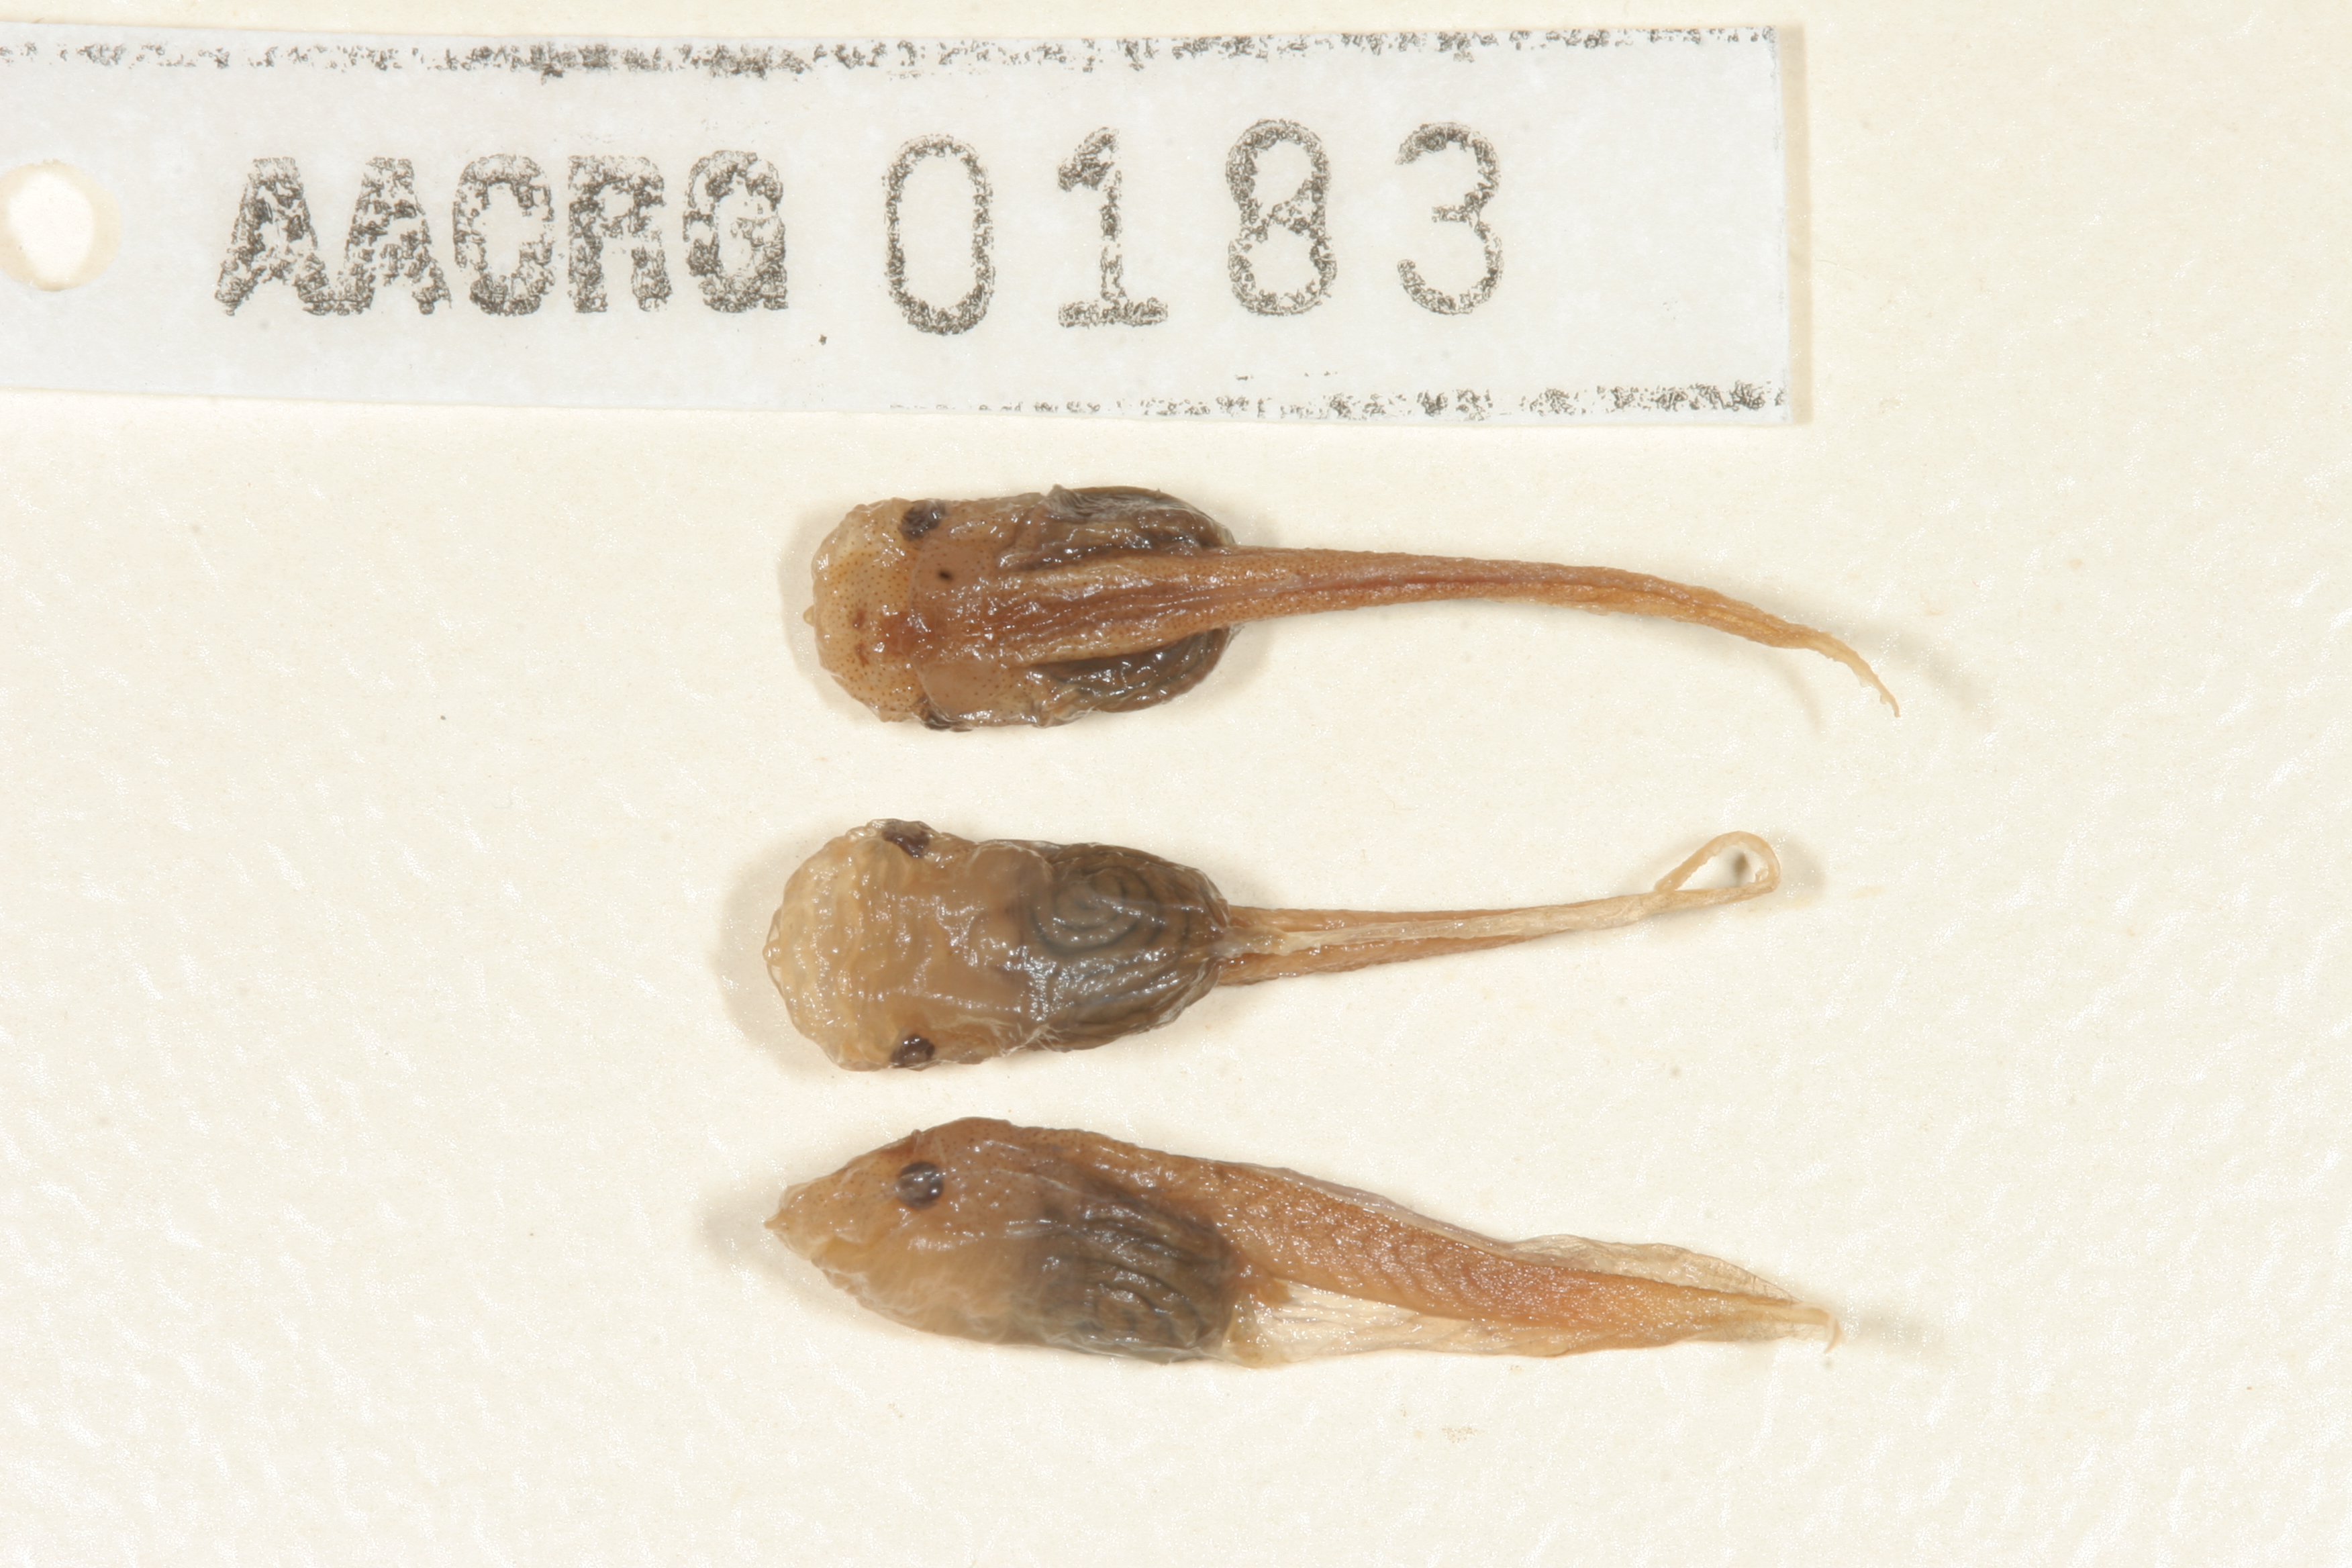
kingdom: Animalia
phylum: Chordata
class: Amphibia
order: Anura
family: Microhylidae
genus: Phrynomantis
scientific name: Phrynomantis bifasciatus
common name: Banded rubber frog
